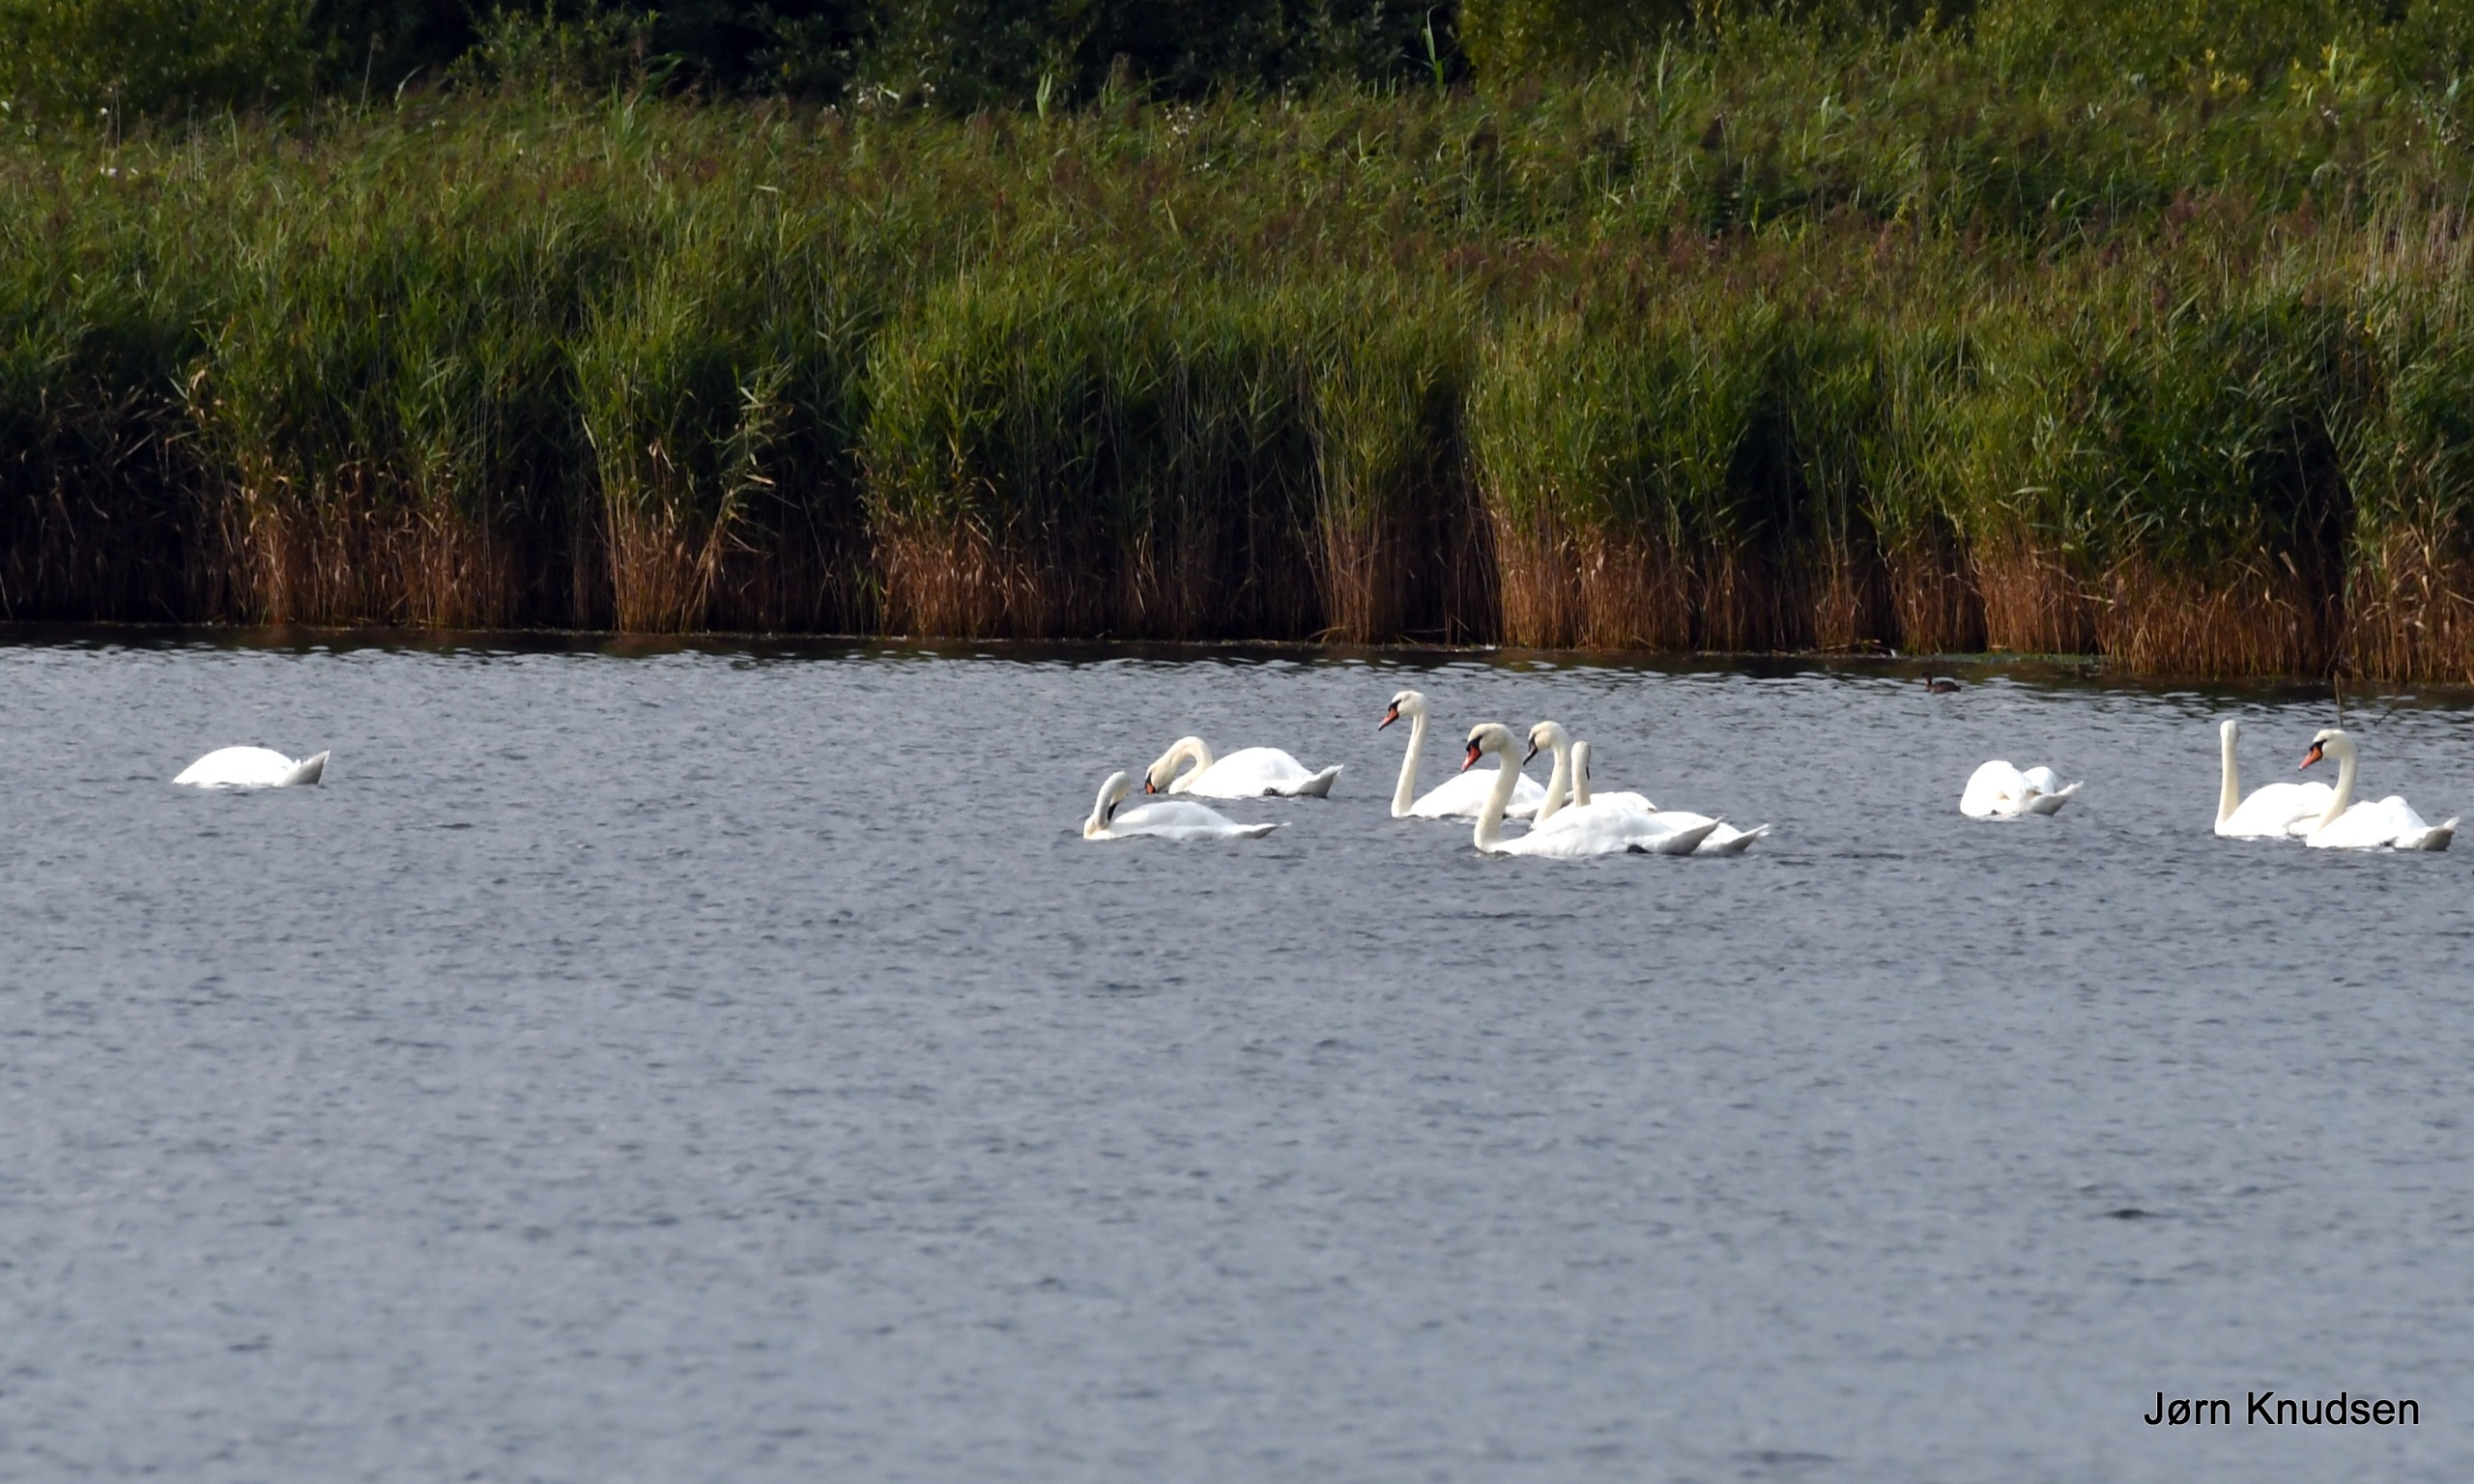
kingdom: Animalia
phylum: Chordata
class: Aves
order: Anseriformes
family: Anatidae
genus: Cygnus
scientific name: Cygnus olor
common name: Knopsvane
